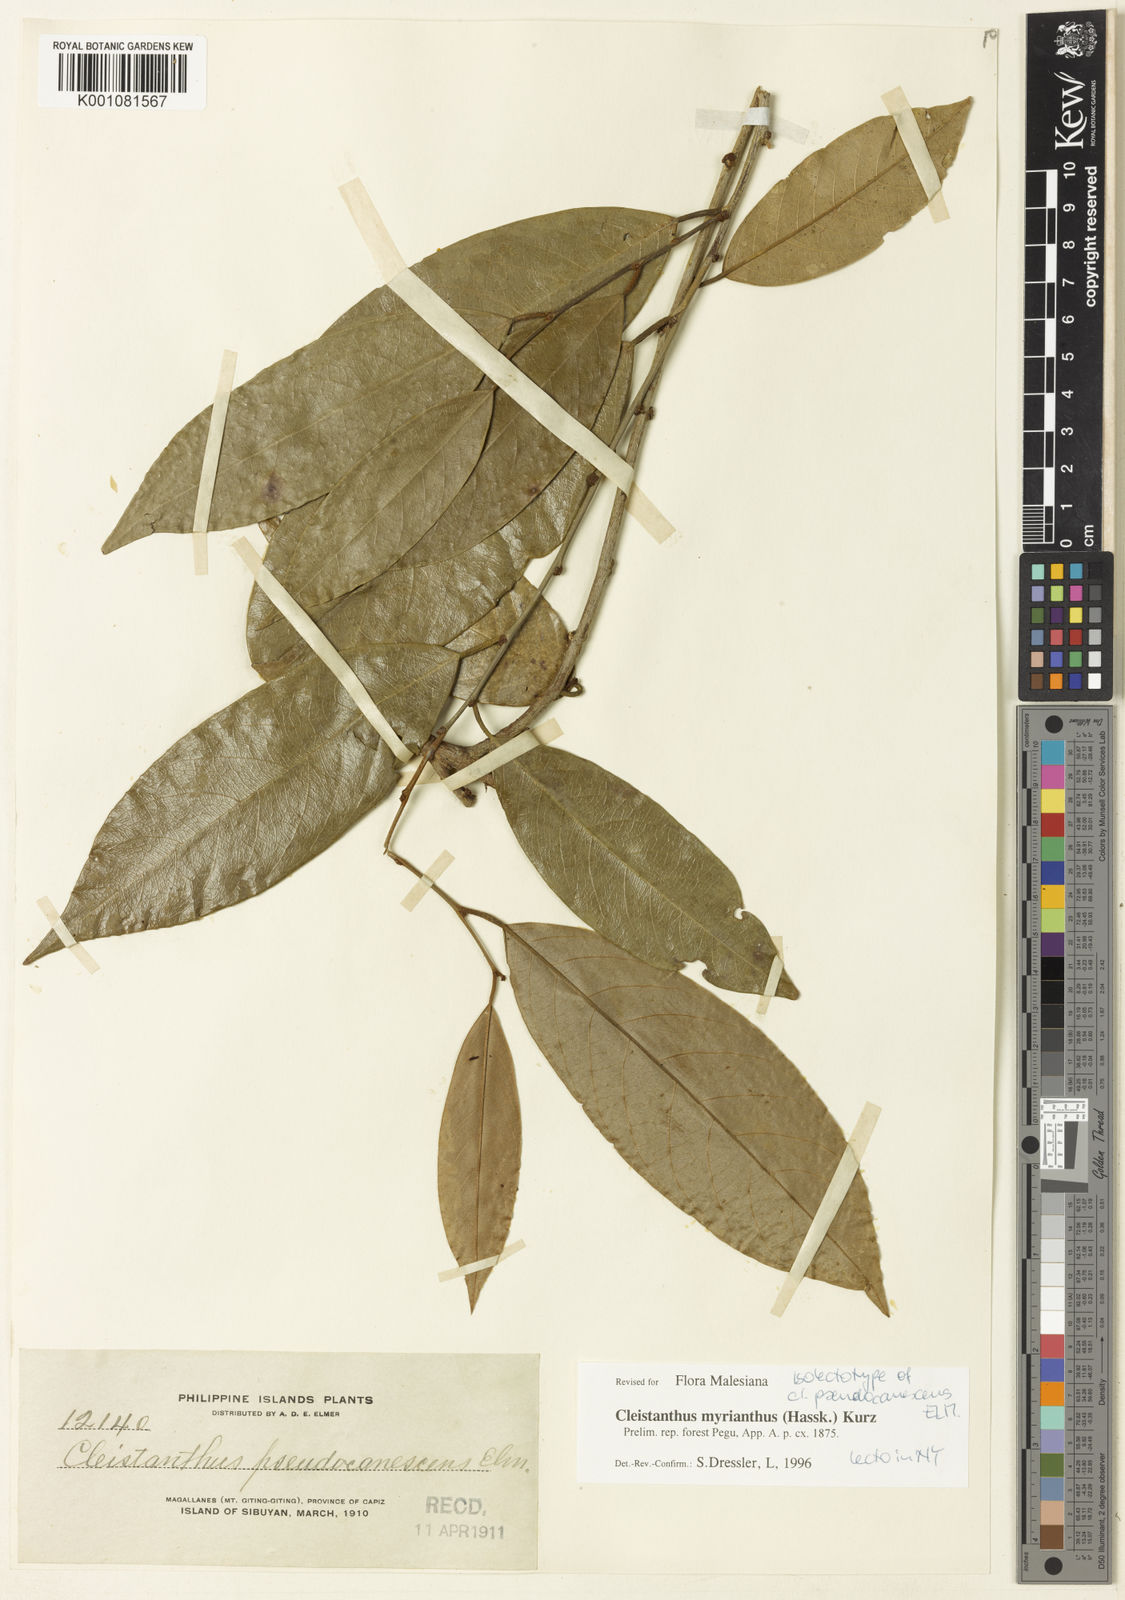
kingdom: Plantae
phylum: Tracheophyta
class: Magnoliopsida
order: Malpighiales
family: Phyllanthaceae
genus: Cleistanthus
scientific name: Cleistanthus oblongifolius
